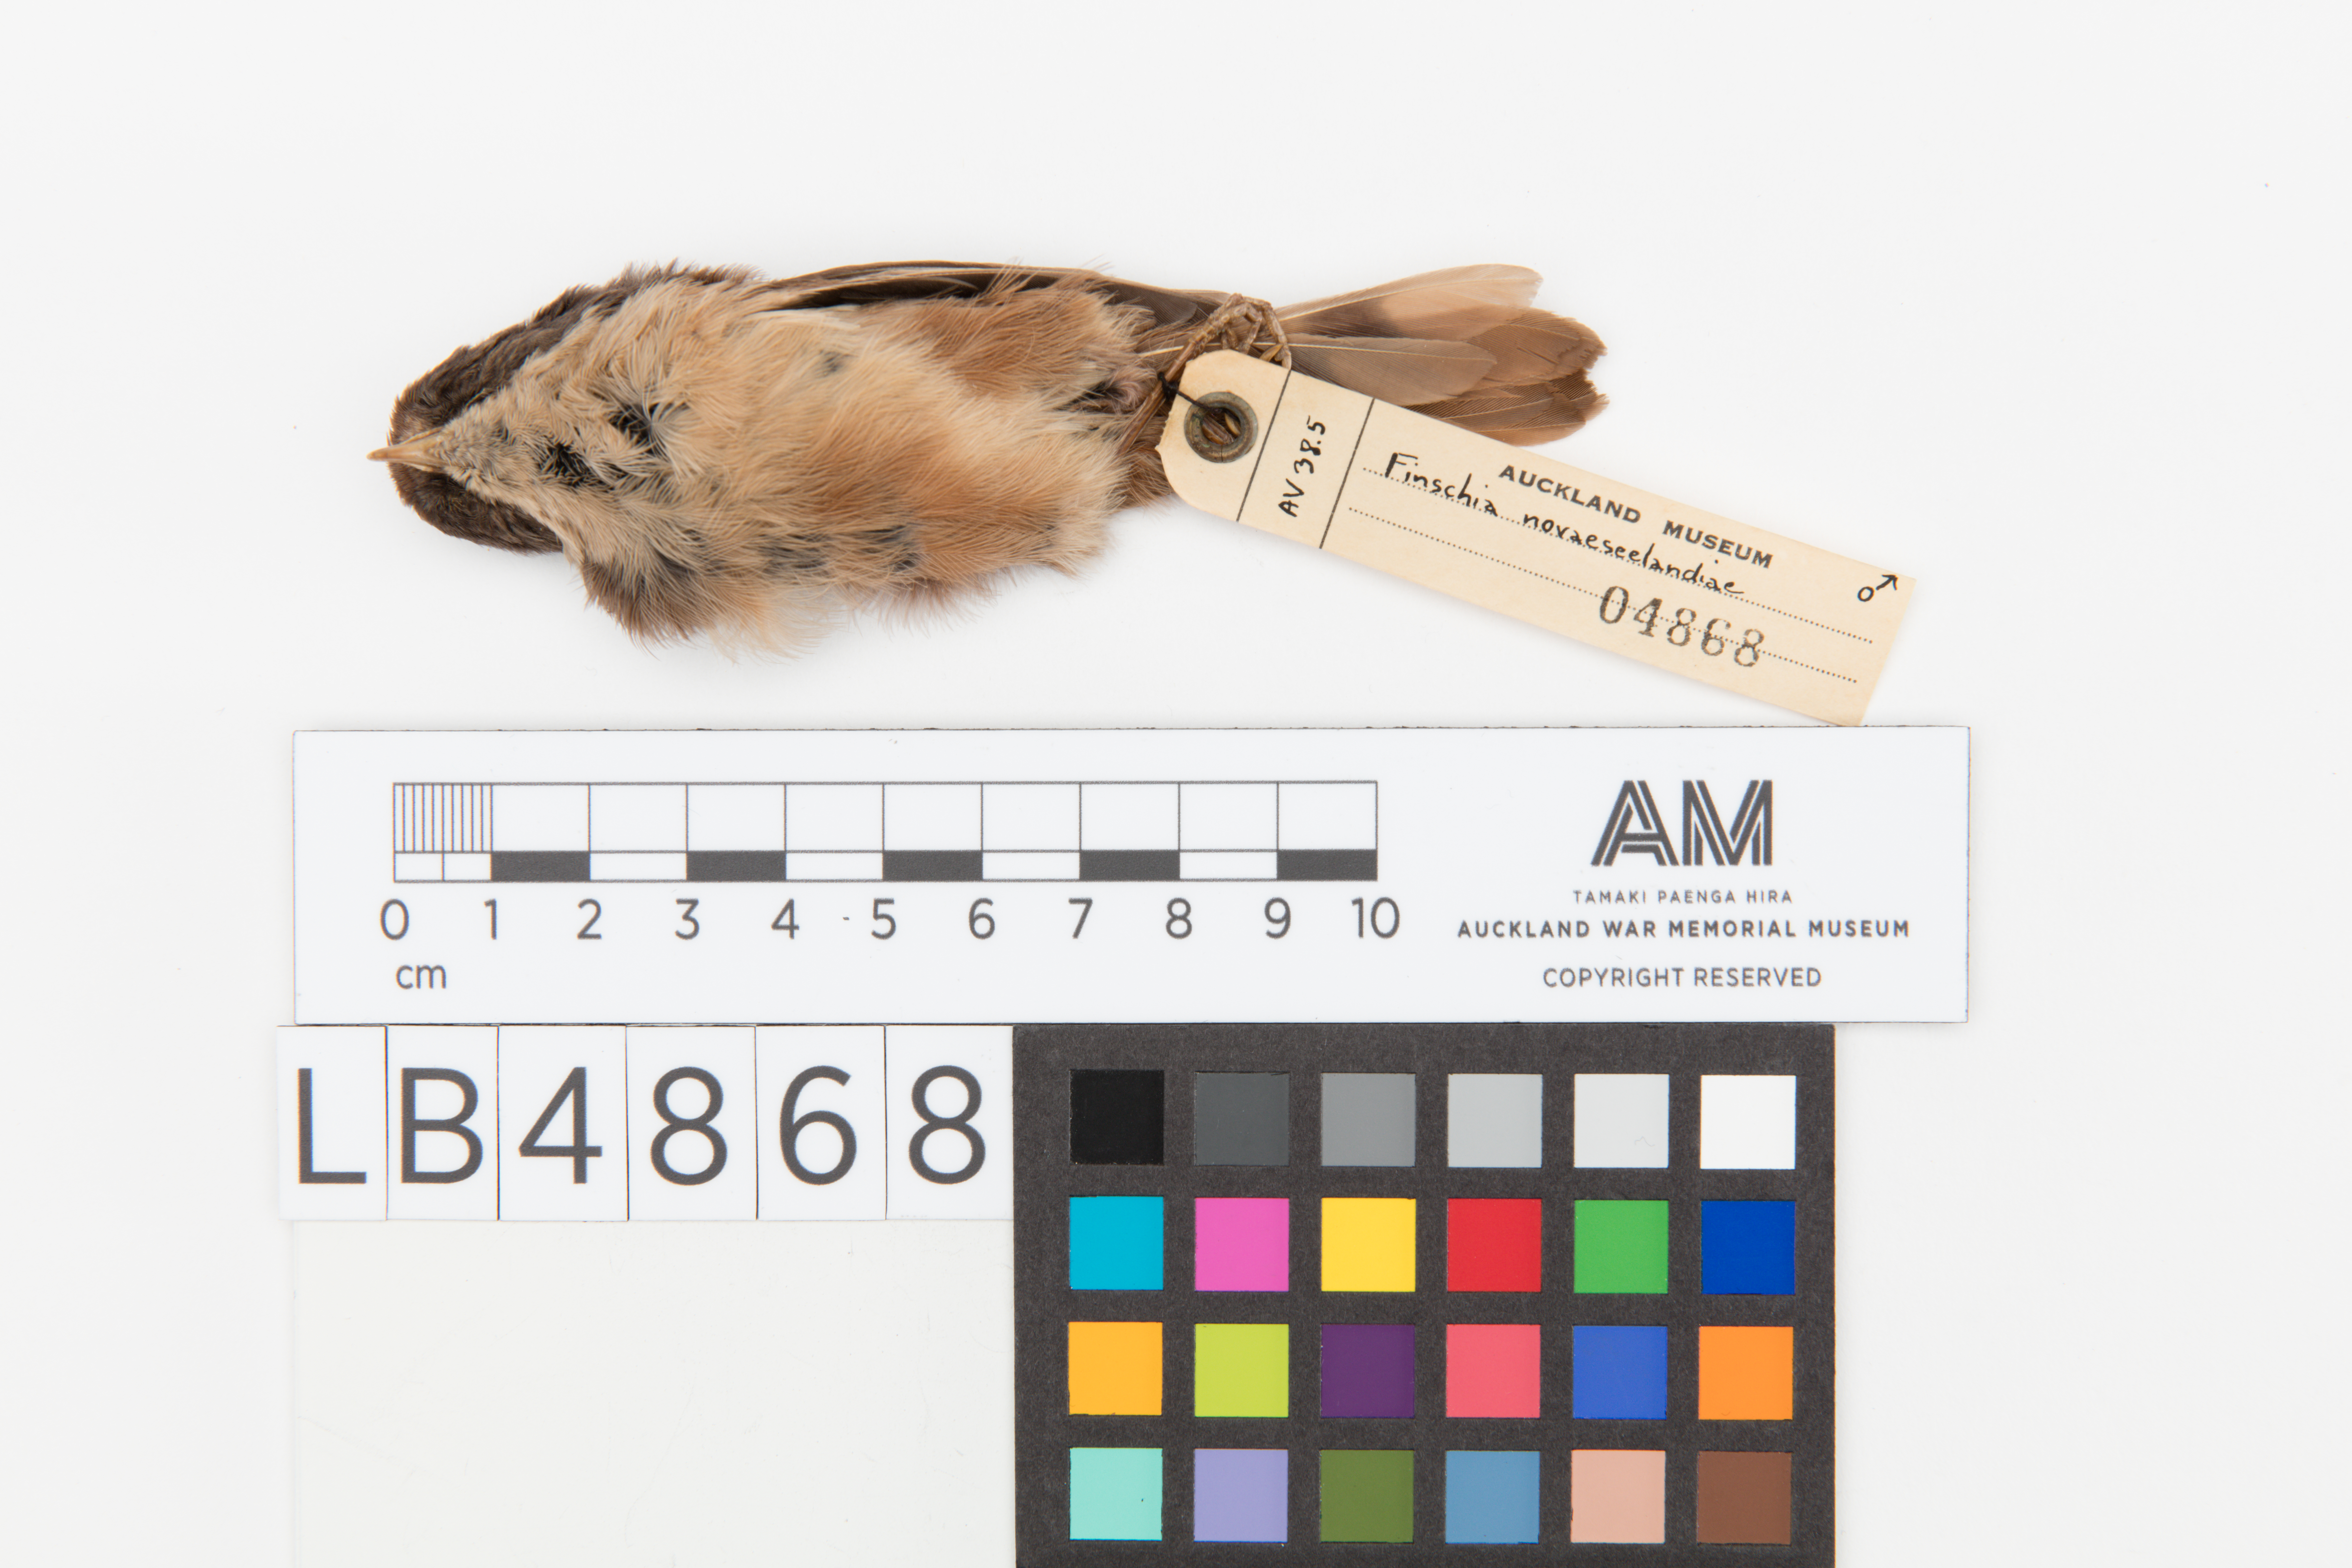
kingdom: Animalia
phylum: Chordata
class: Aves
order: Passeriformes
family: Acanthizidae
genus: Finschia
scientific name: Finschia novaeseelandiae
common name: Pipipi
